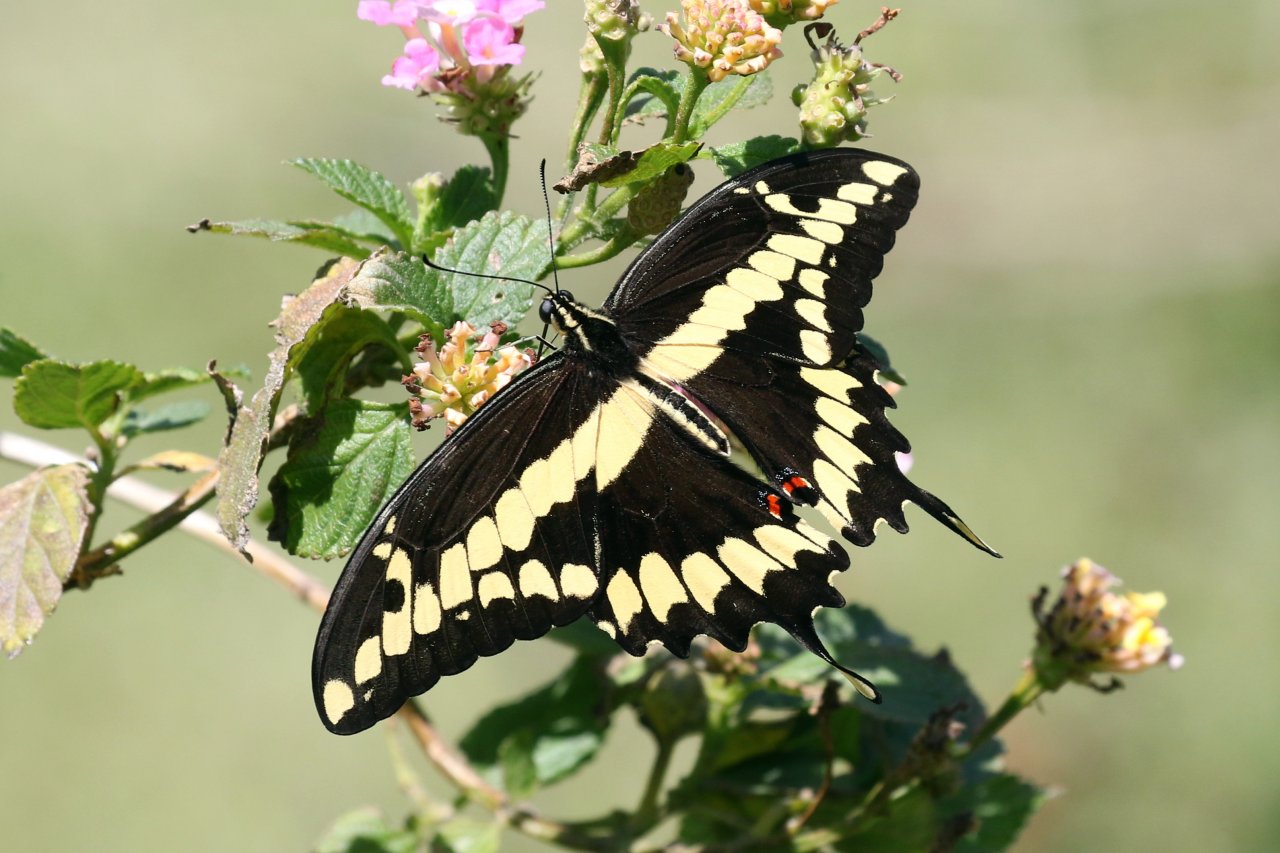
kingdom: Animalia
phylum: Arthropoda
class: Insecta
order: Lepidoptera
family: Papilionidae
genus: Papilio
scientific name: Papilio rumiko
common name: Western Giant Swallowtail
